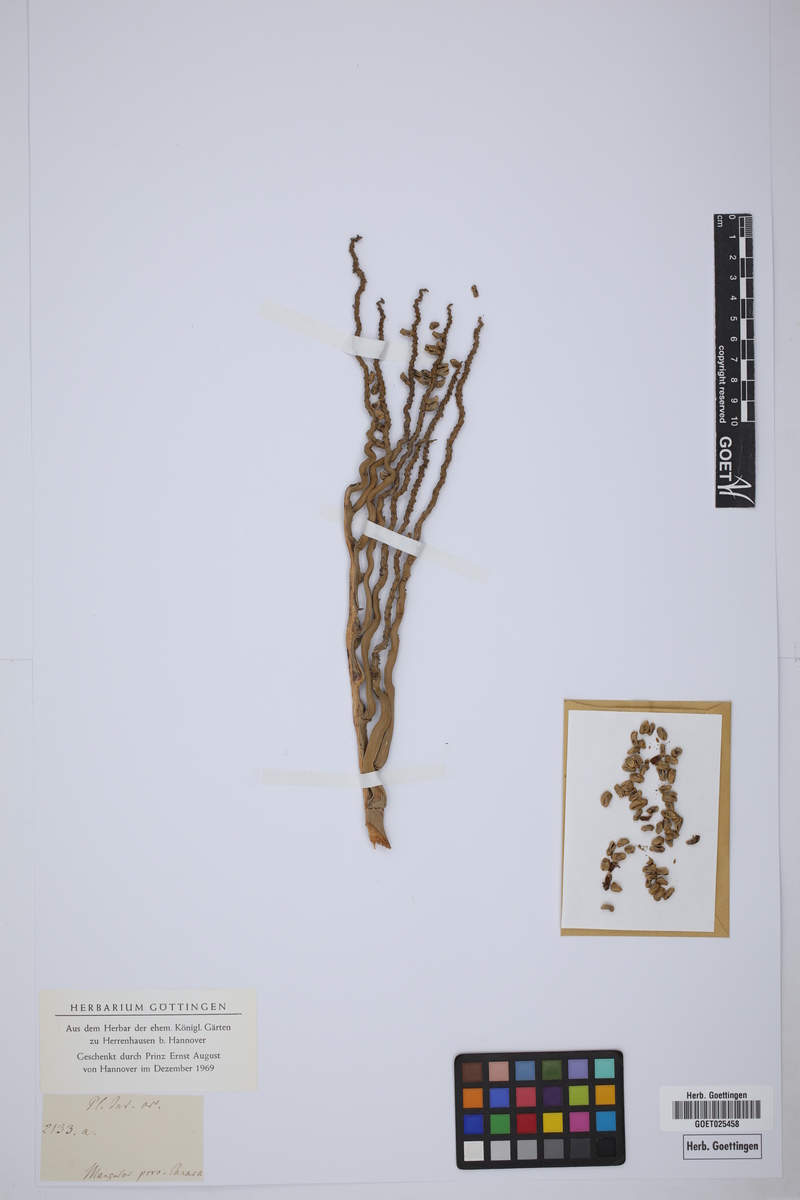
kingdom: Plantae
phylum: Tracheophyta
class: Liliopsida
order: Arecales
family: Arecaceae
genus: Cocos
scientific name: Cocos nucifera
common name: Coconut palm
